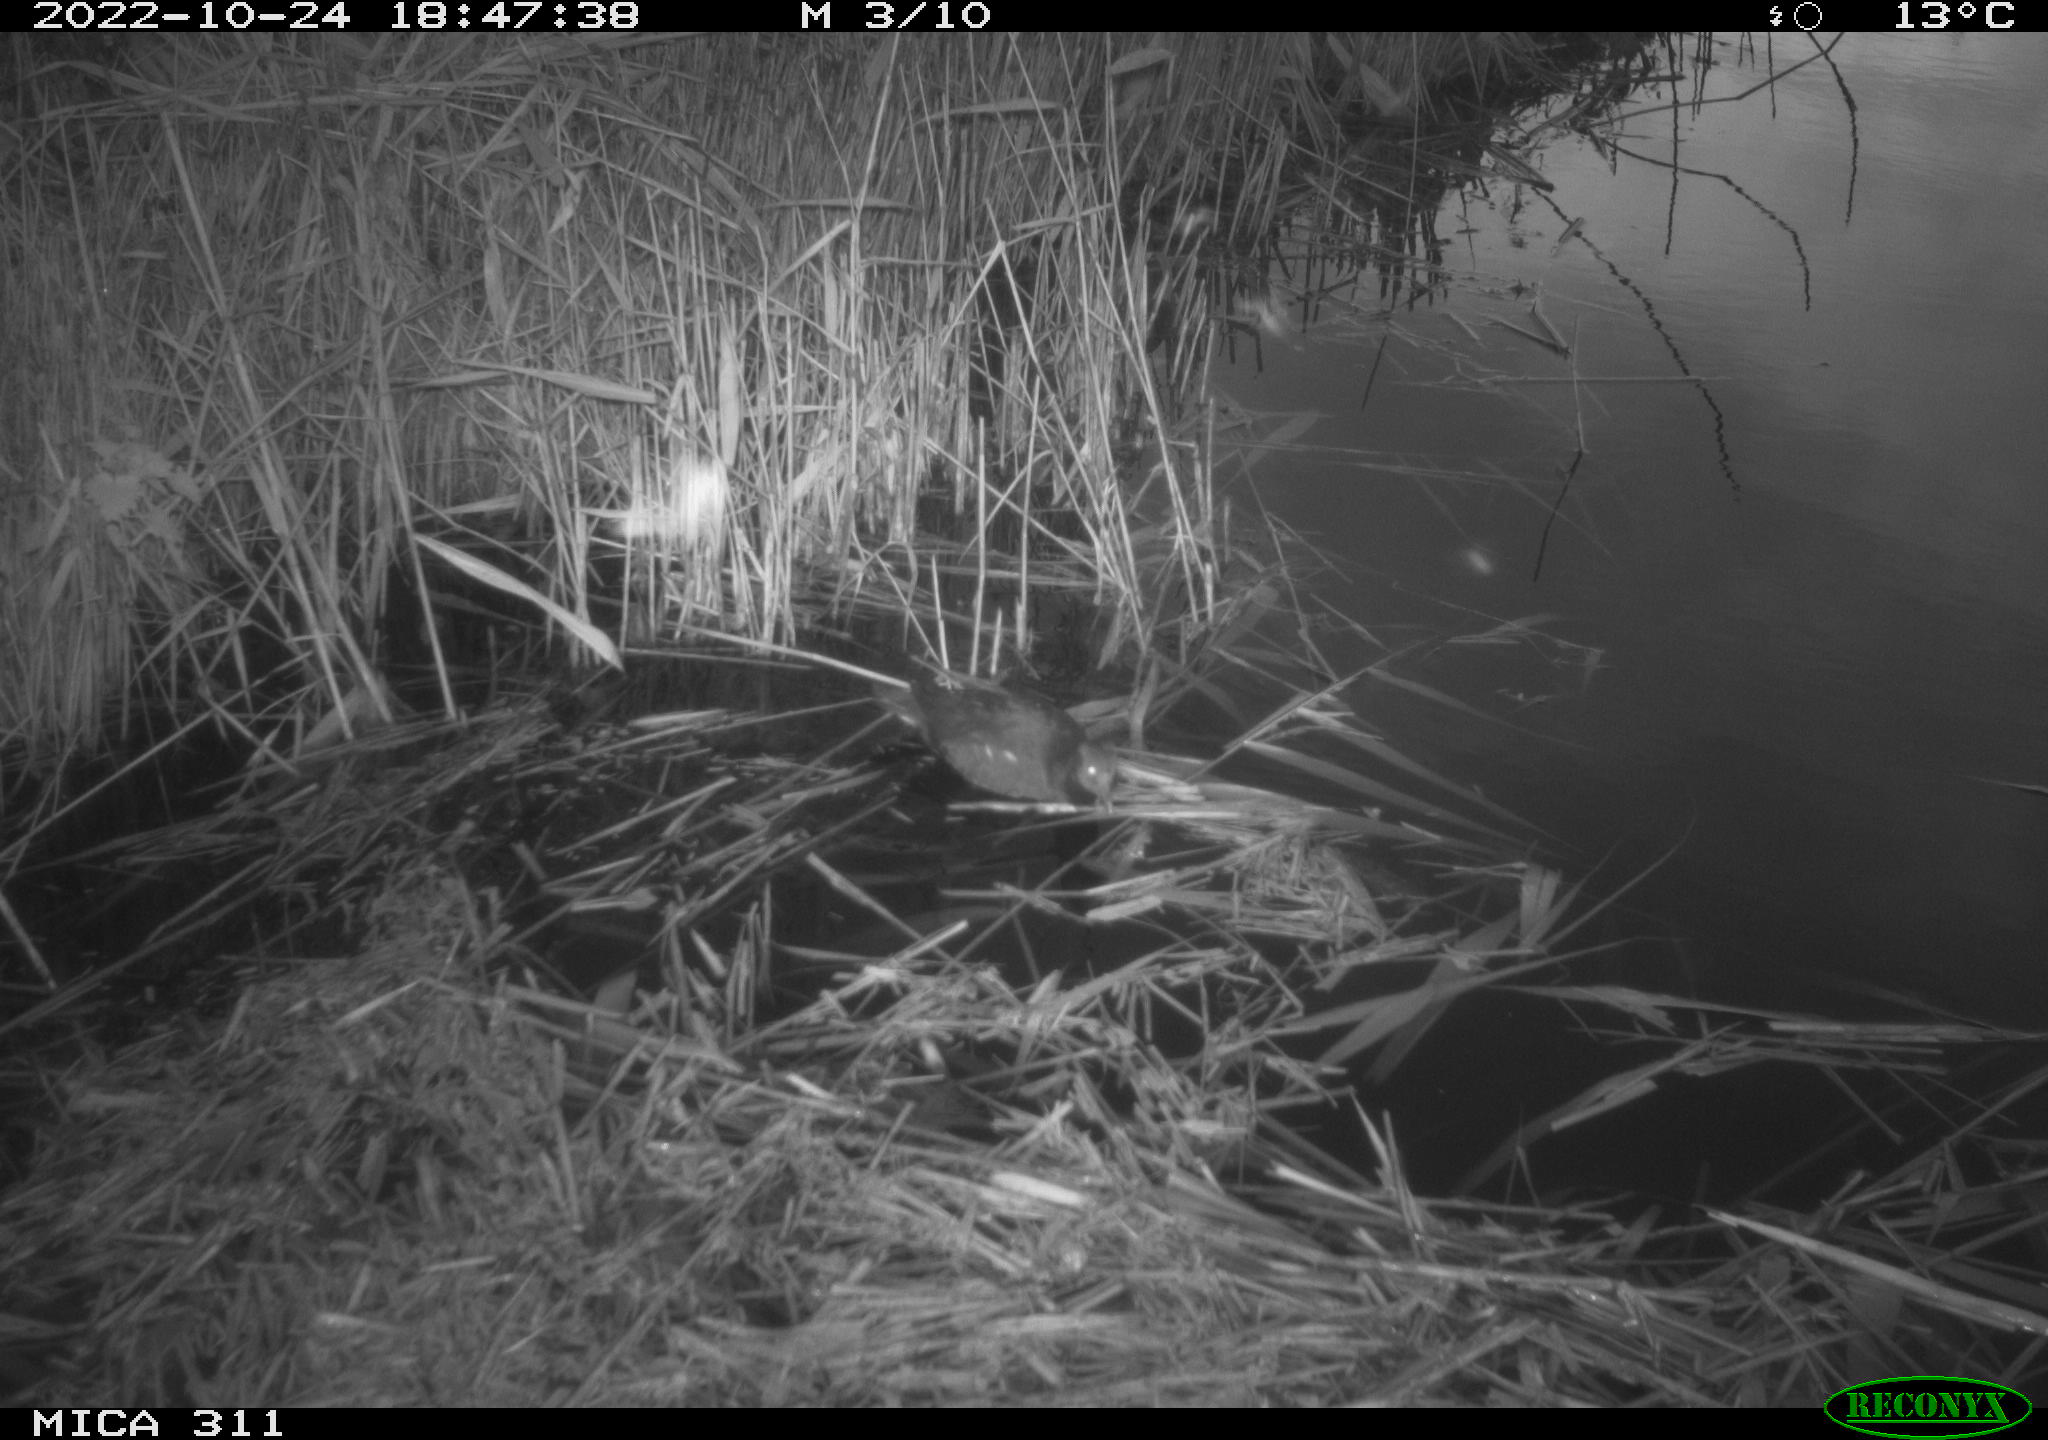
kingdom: Animalia
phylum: Chordata
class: Aves
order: Gruiformes
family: Rallidae
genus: Gallinula
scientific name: Gallinula chloropus
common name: Common moorhen
